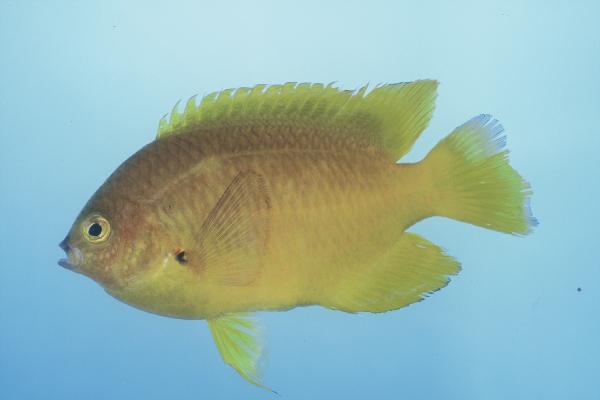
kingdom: Animalia
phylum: Chordata
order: Perciformes
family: Pomacentridae
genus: Pomacentrus
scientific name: Pomacentrus pikei
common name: Blacklip damsel
